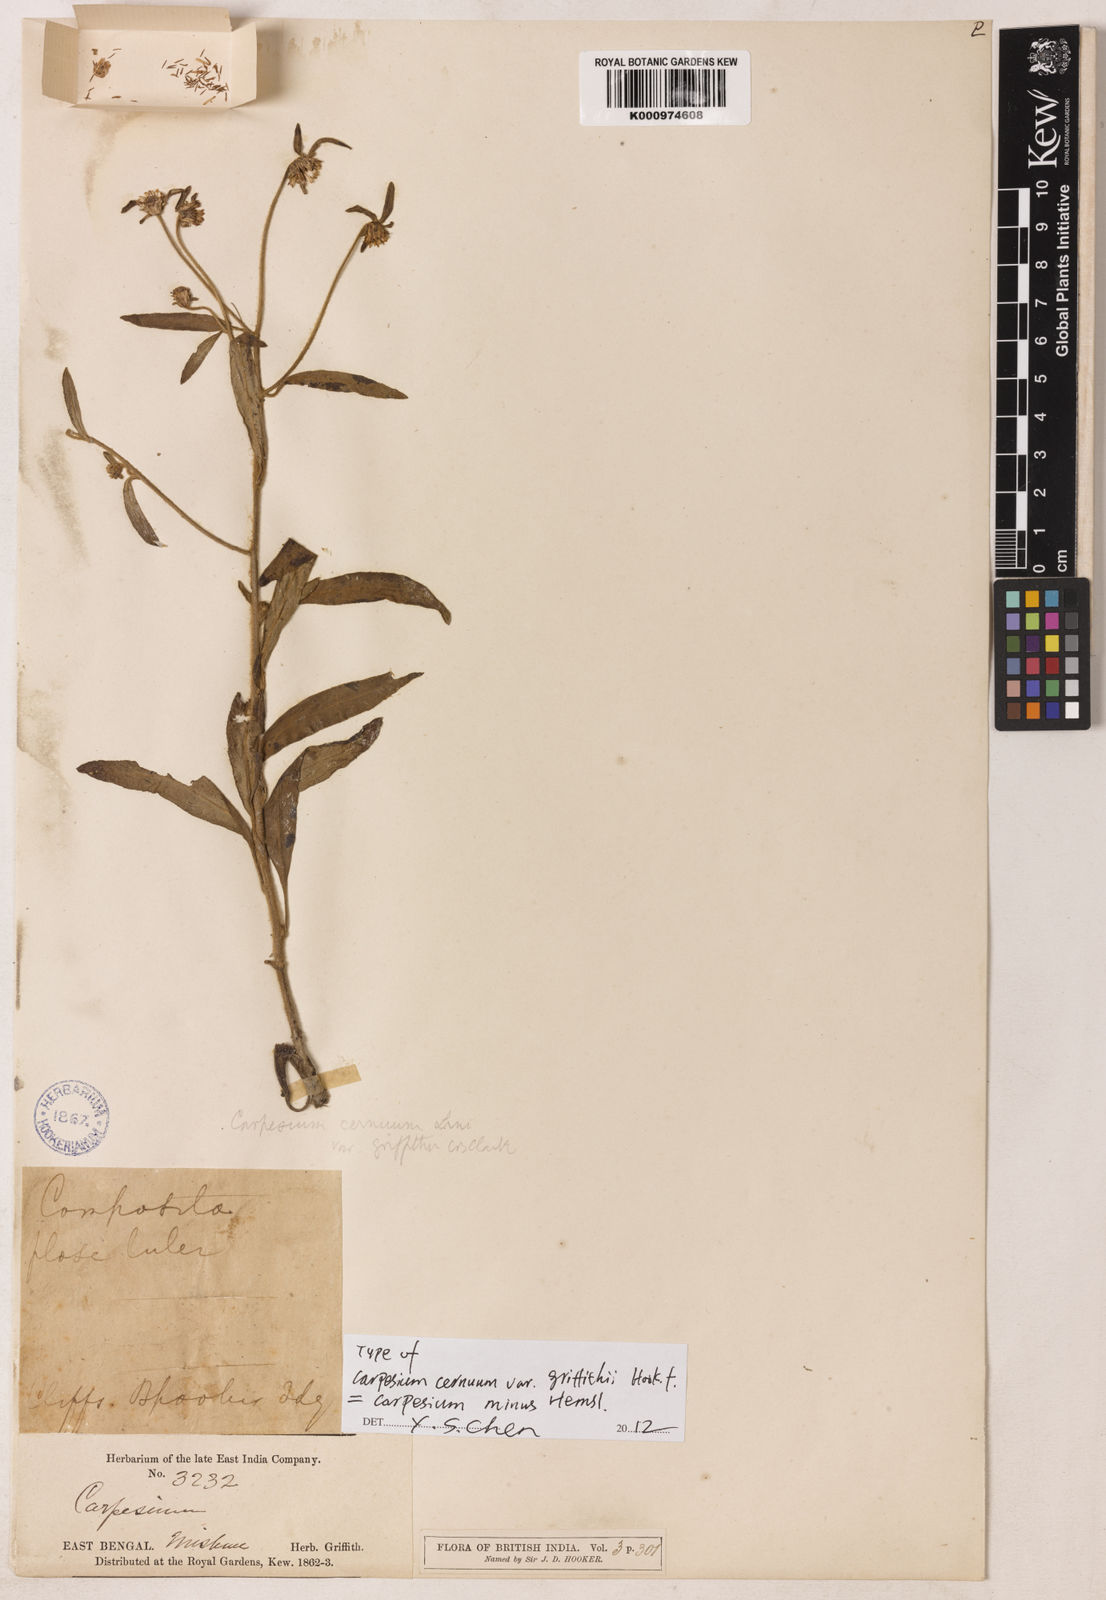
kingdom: Plantae
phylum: Tracheophyta
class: Magnoliopsida
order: Asterales
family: Asteraceae
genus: Carpesium
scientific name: Carpesium nepalense
